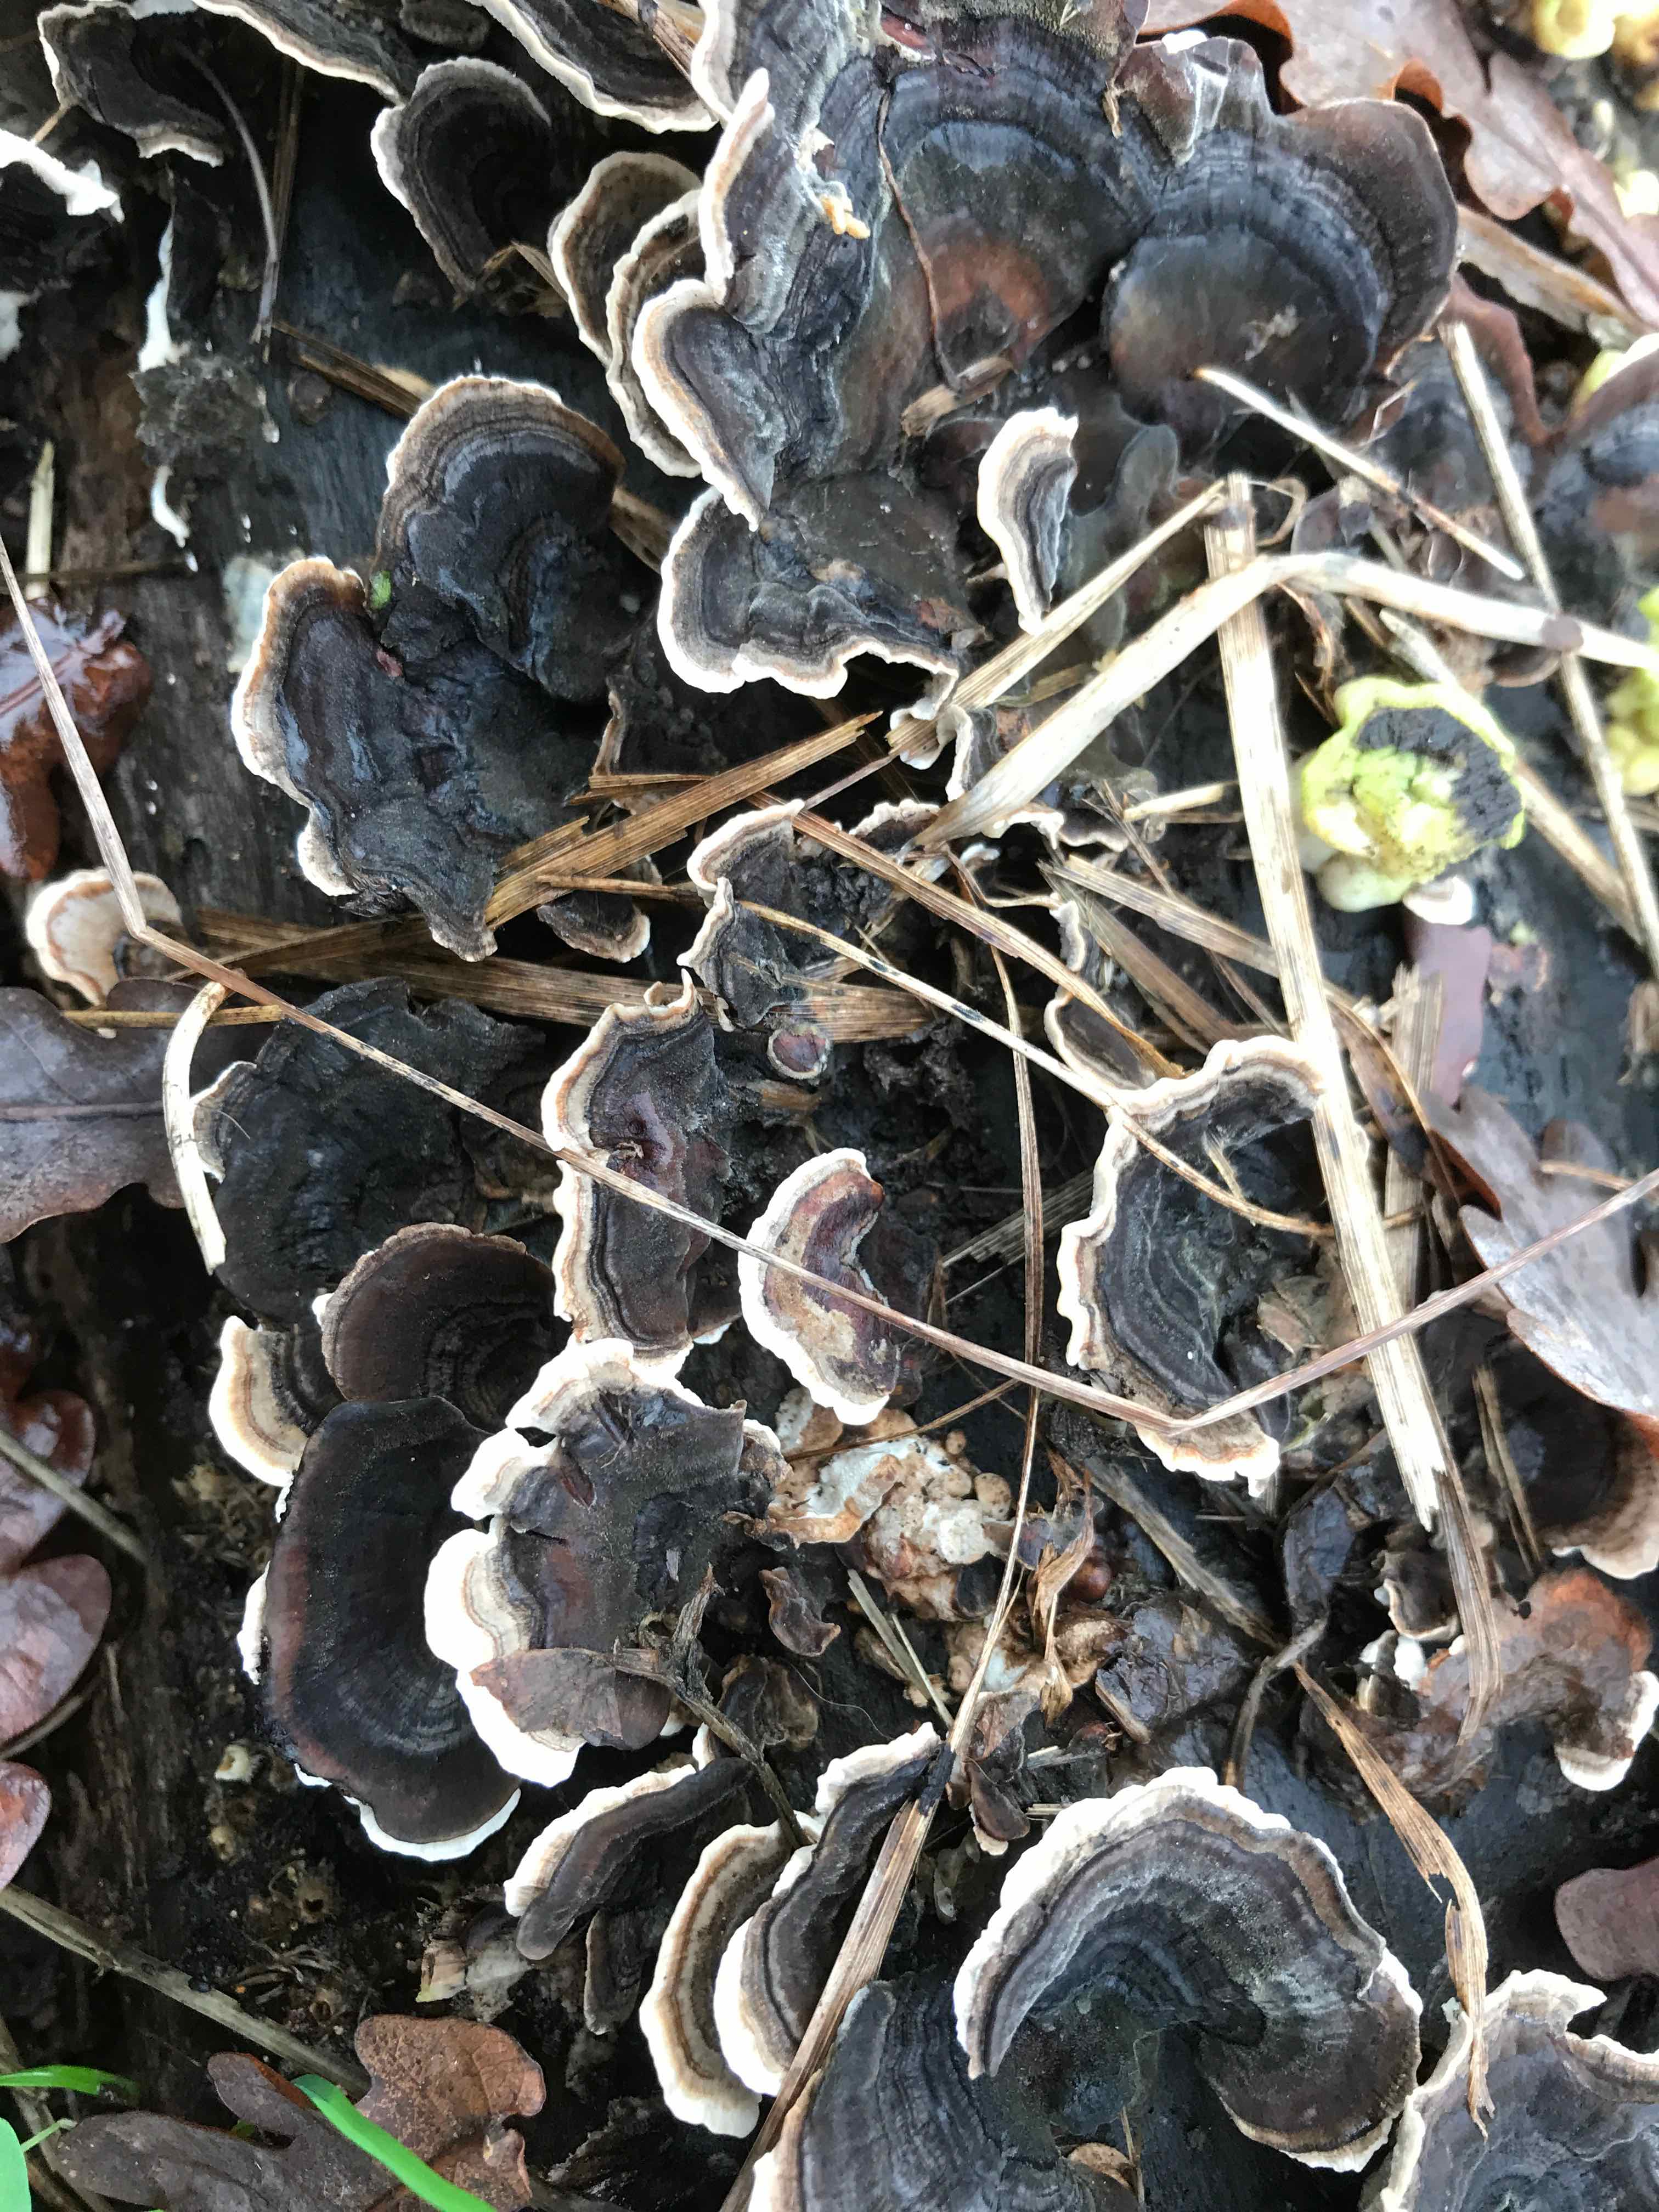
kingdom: Fungi
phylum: Basidiomycota
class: Agaricomycetes
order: Polyporales
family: Polyporaceae
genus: Trametes
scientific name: Trametes versicolor
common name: broget læderporesvamp
